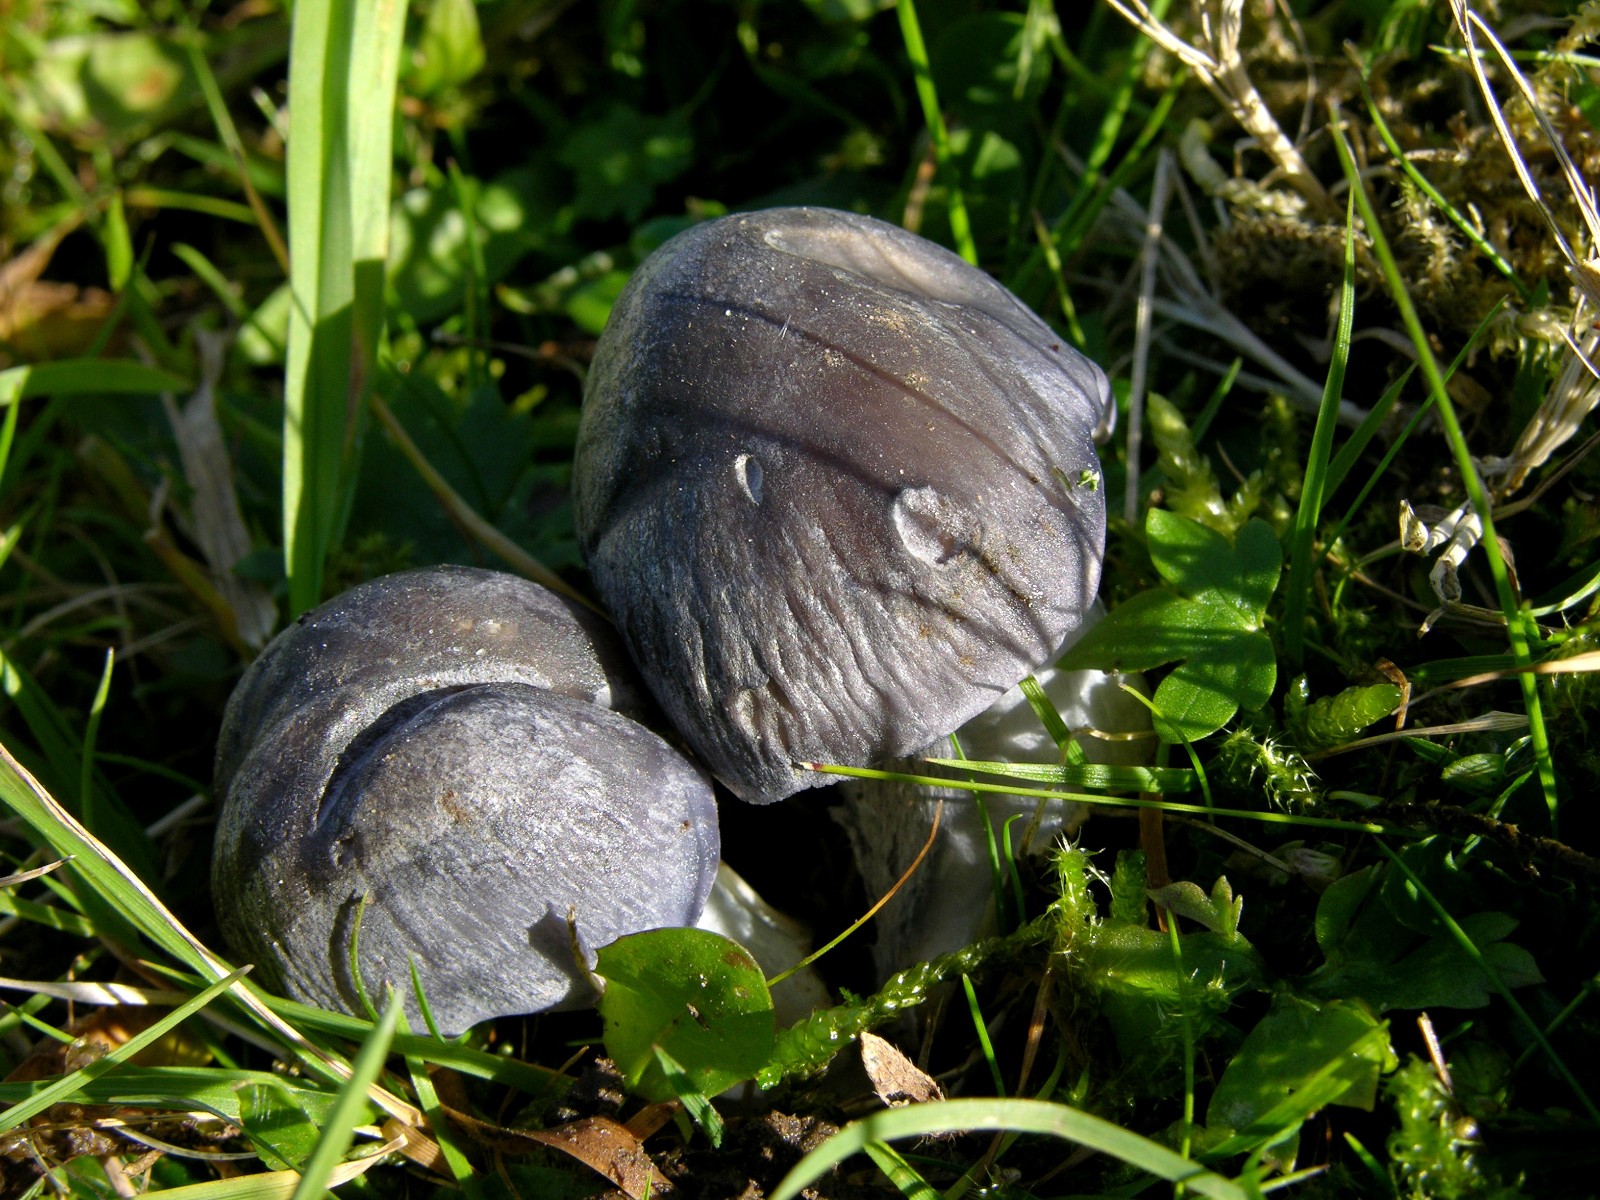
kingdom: Fungi
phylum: Basidiomycota
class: Agaricomycetes
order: Agaricales
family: Entolomataceae
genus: Entoloma
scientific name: Entoloma
